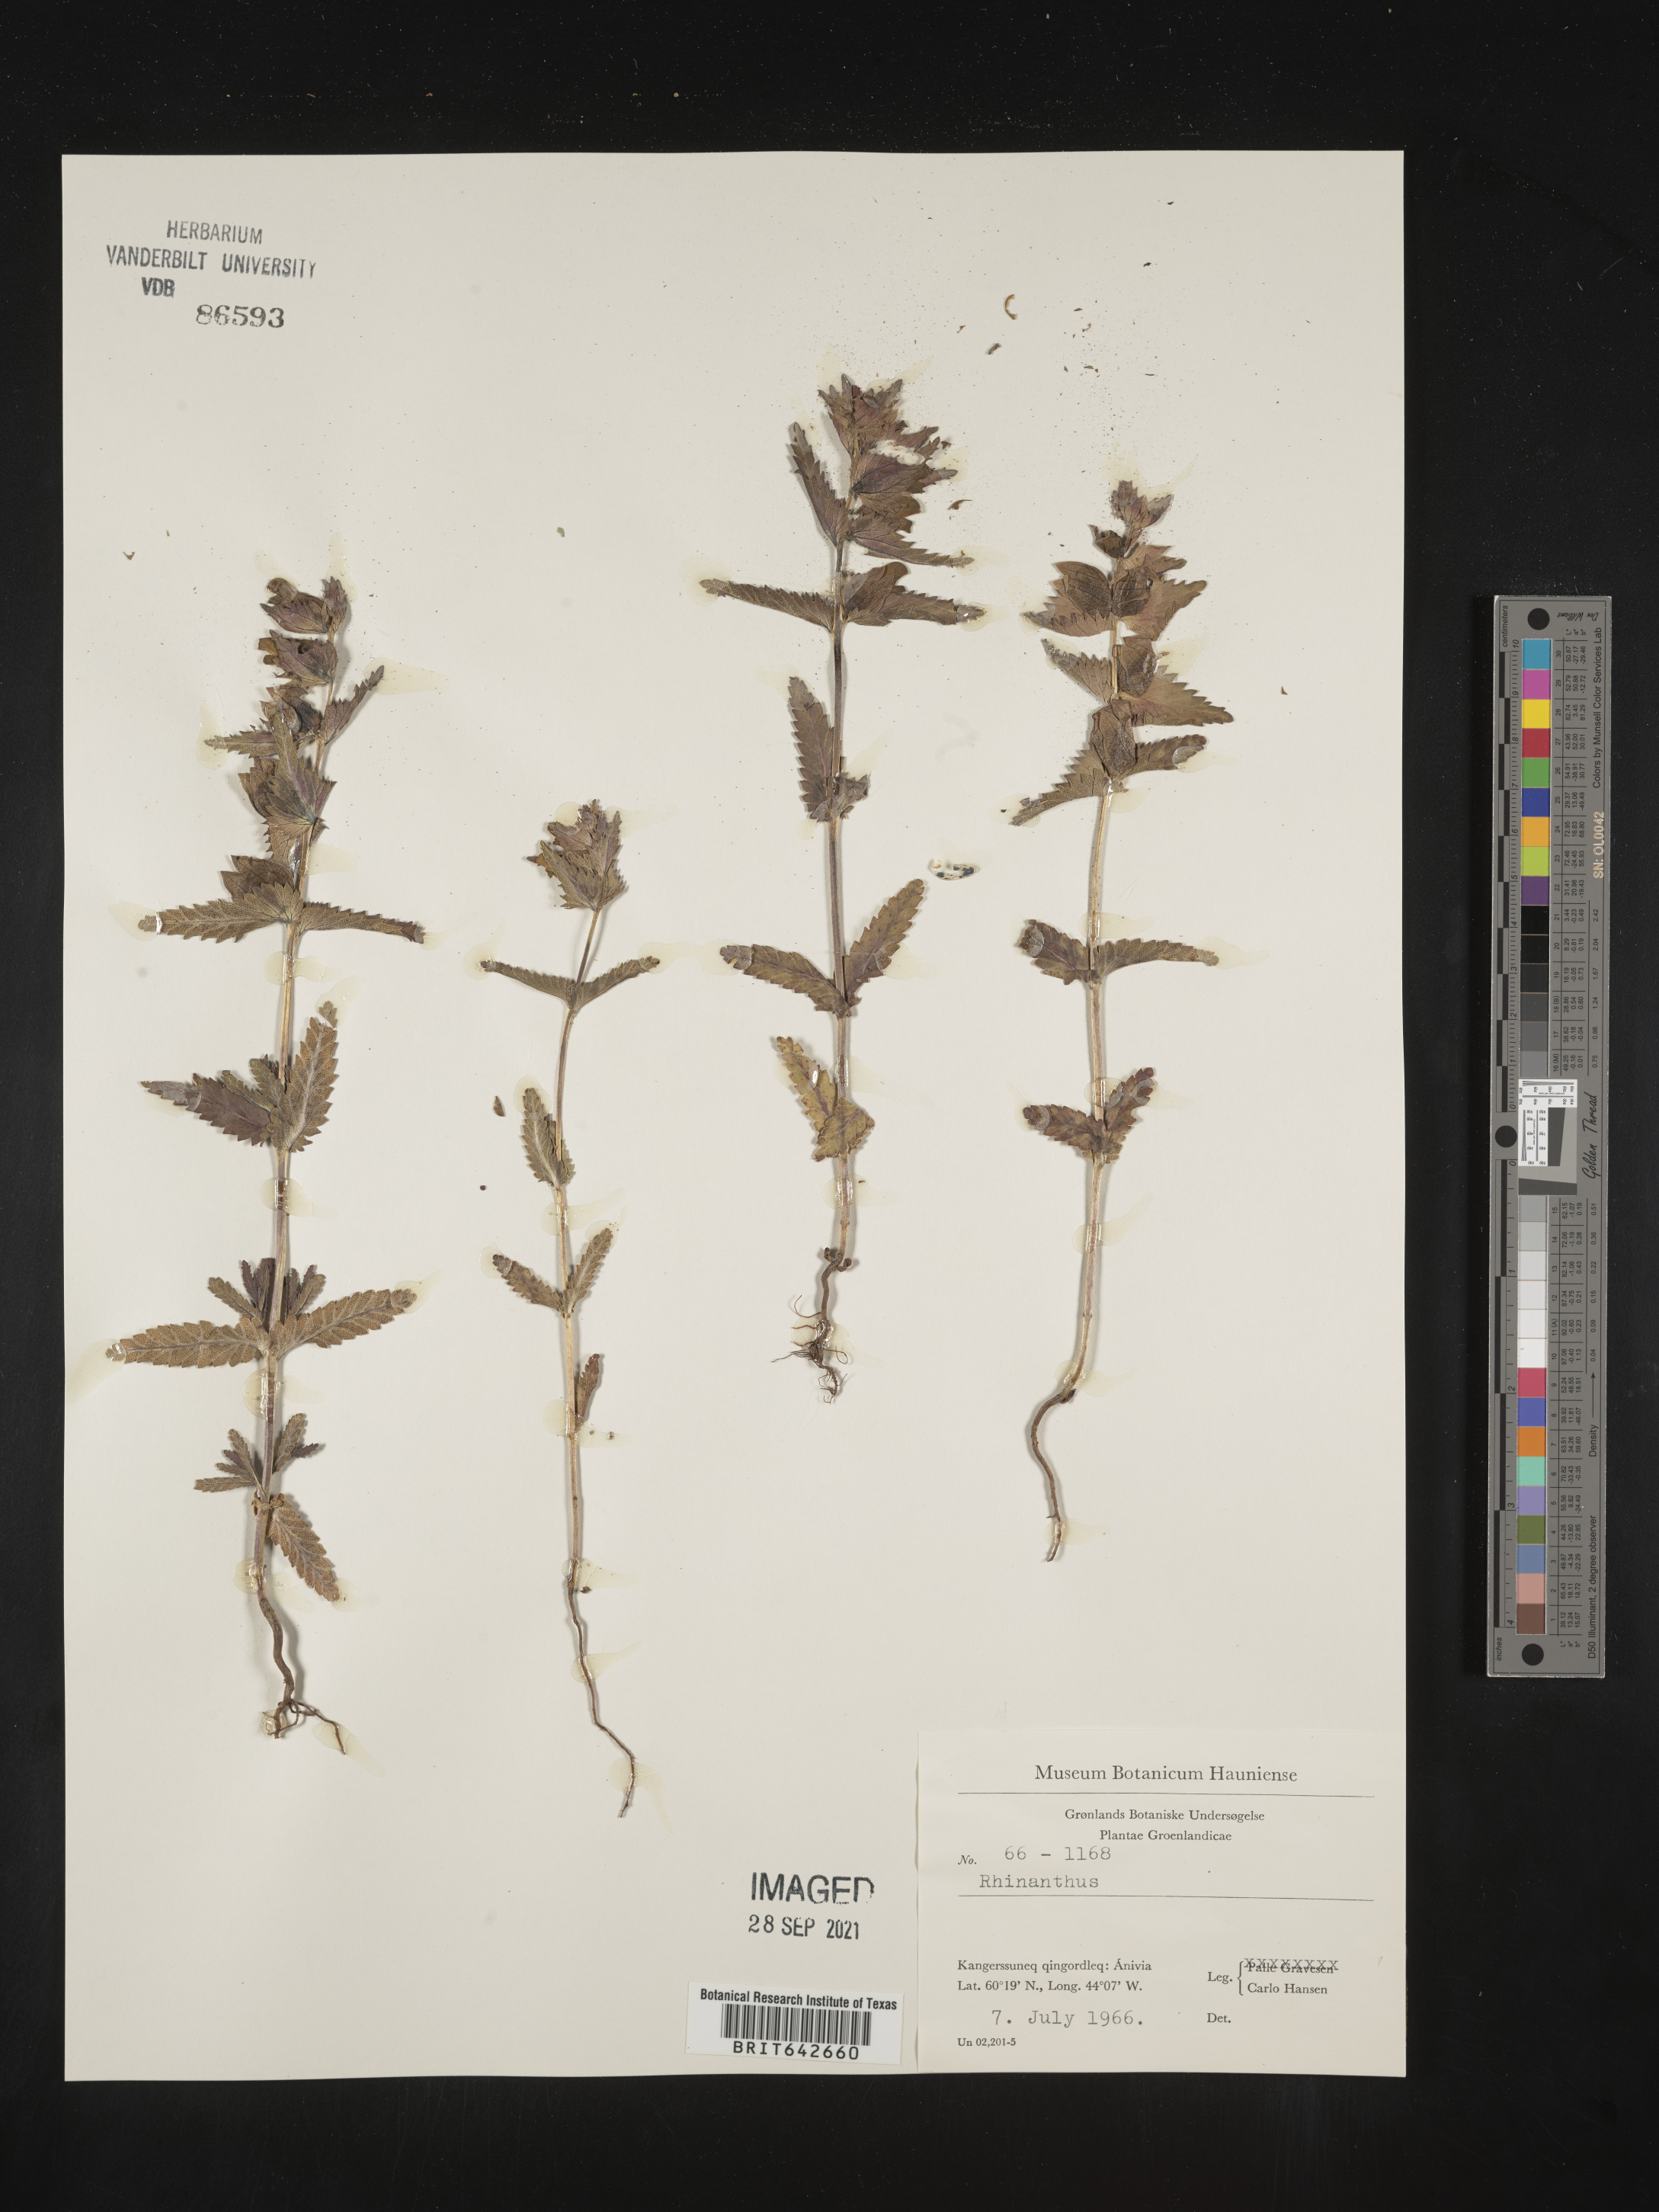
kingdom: Plantae
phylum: Tracheophyta
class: Magnoliopsida
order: Lamiales
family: Orobanchaceae
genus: Rhinanthus
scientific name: Rhinanthus
